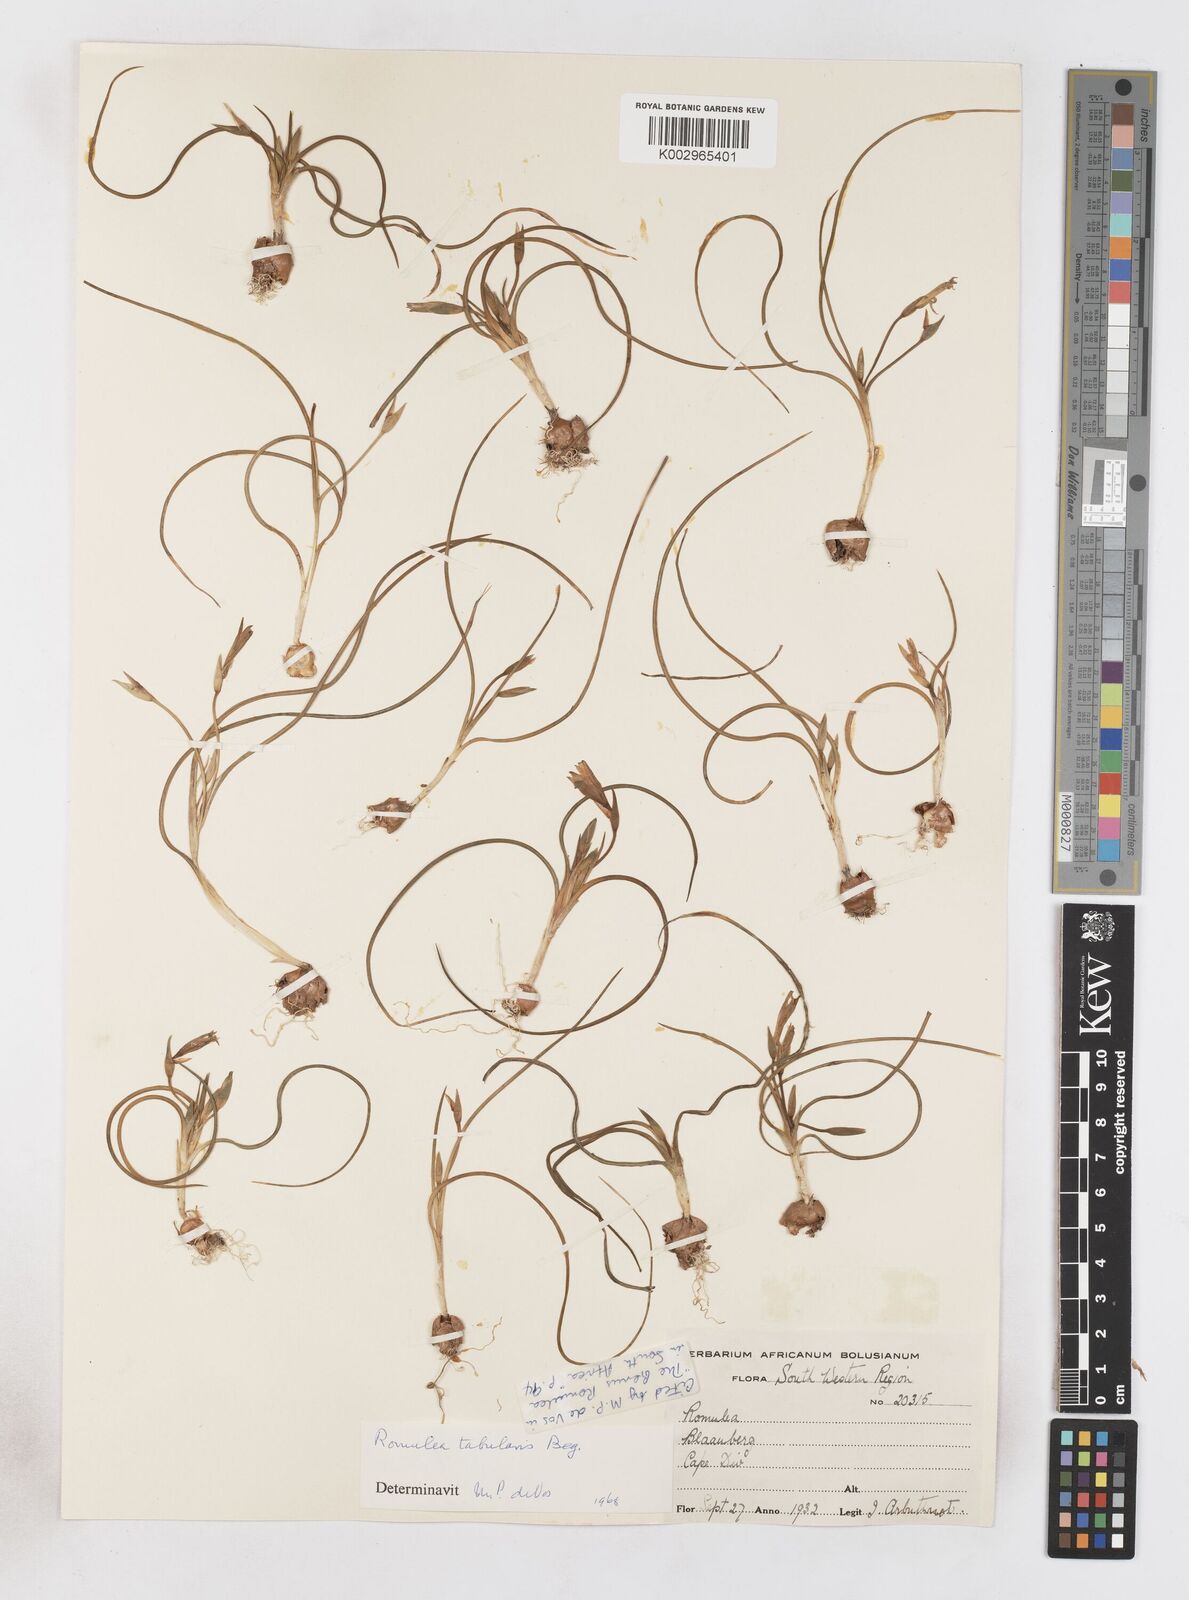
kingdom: Plantae
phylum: Tracheophyta
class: Liliopsida
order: Asparagales
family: Iridaceae
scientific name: Iridaceae
